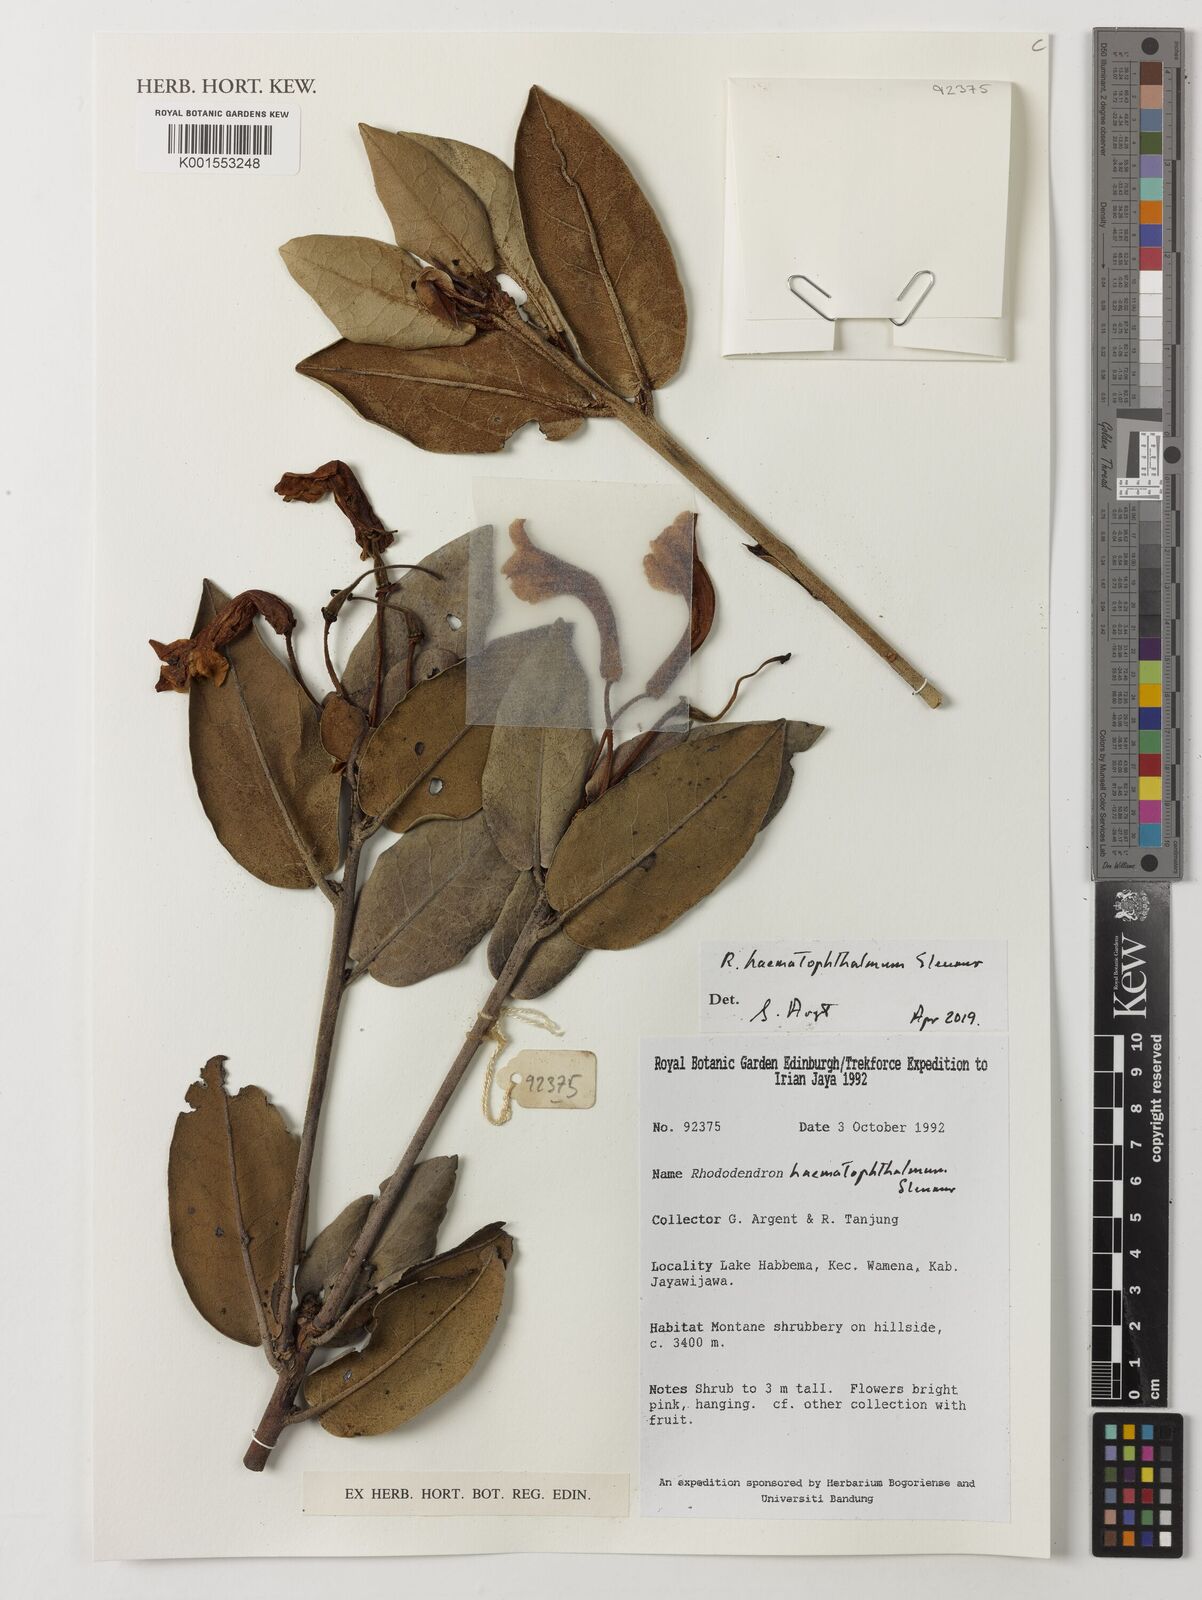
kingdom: Plantae
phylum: Tracheophyta
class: Magnoliopsida
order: Ericales
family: Ericaceae
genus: Rhododendron
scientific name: Rhododendron haematophthalmum
